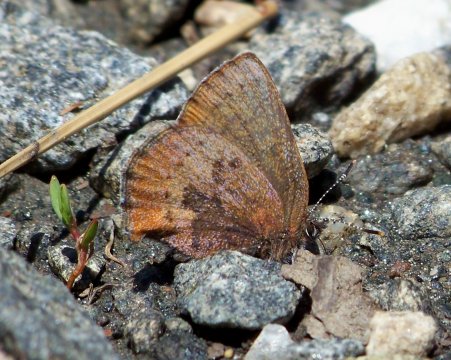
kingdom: Animalia
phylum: Arthropoda
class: Insecta
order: Lepidoptera
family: Lycaenidae
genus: Incisalia
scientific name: Incisalia irioides
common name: Brown Elfin
